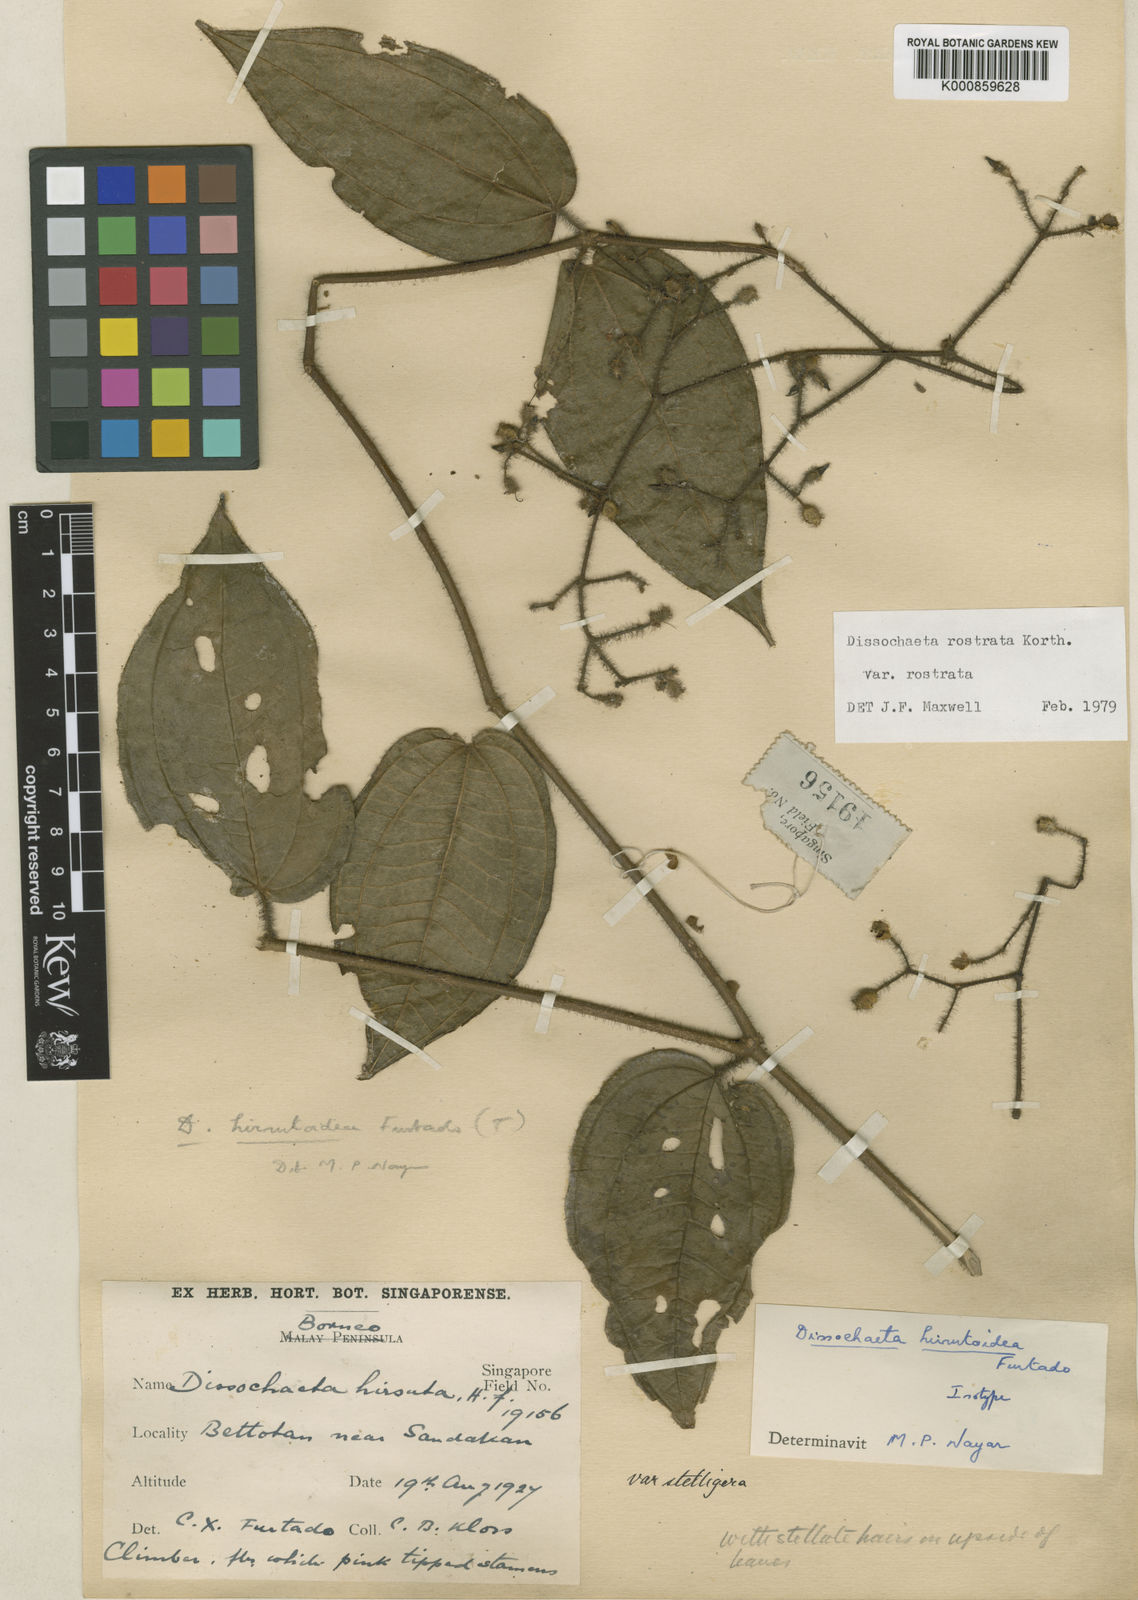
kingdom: Plantae
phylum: Tracheophyta
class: Magnoliopsida
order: Myrtales
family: Melastomataceae
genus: Macrolenes
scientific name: Macrolenes rostrata
